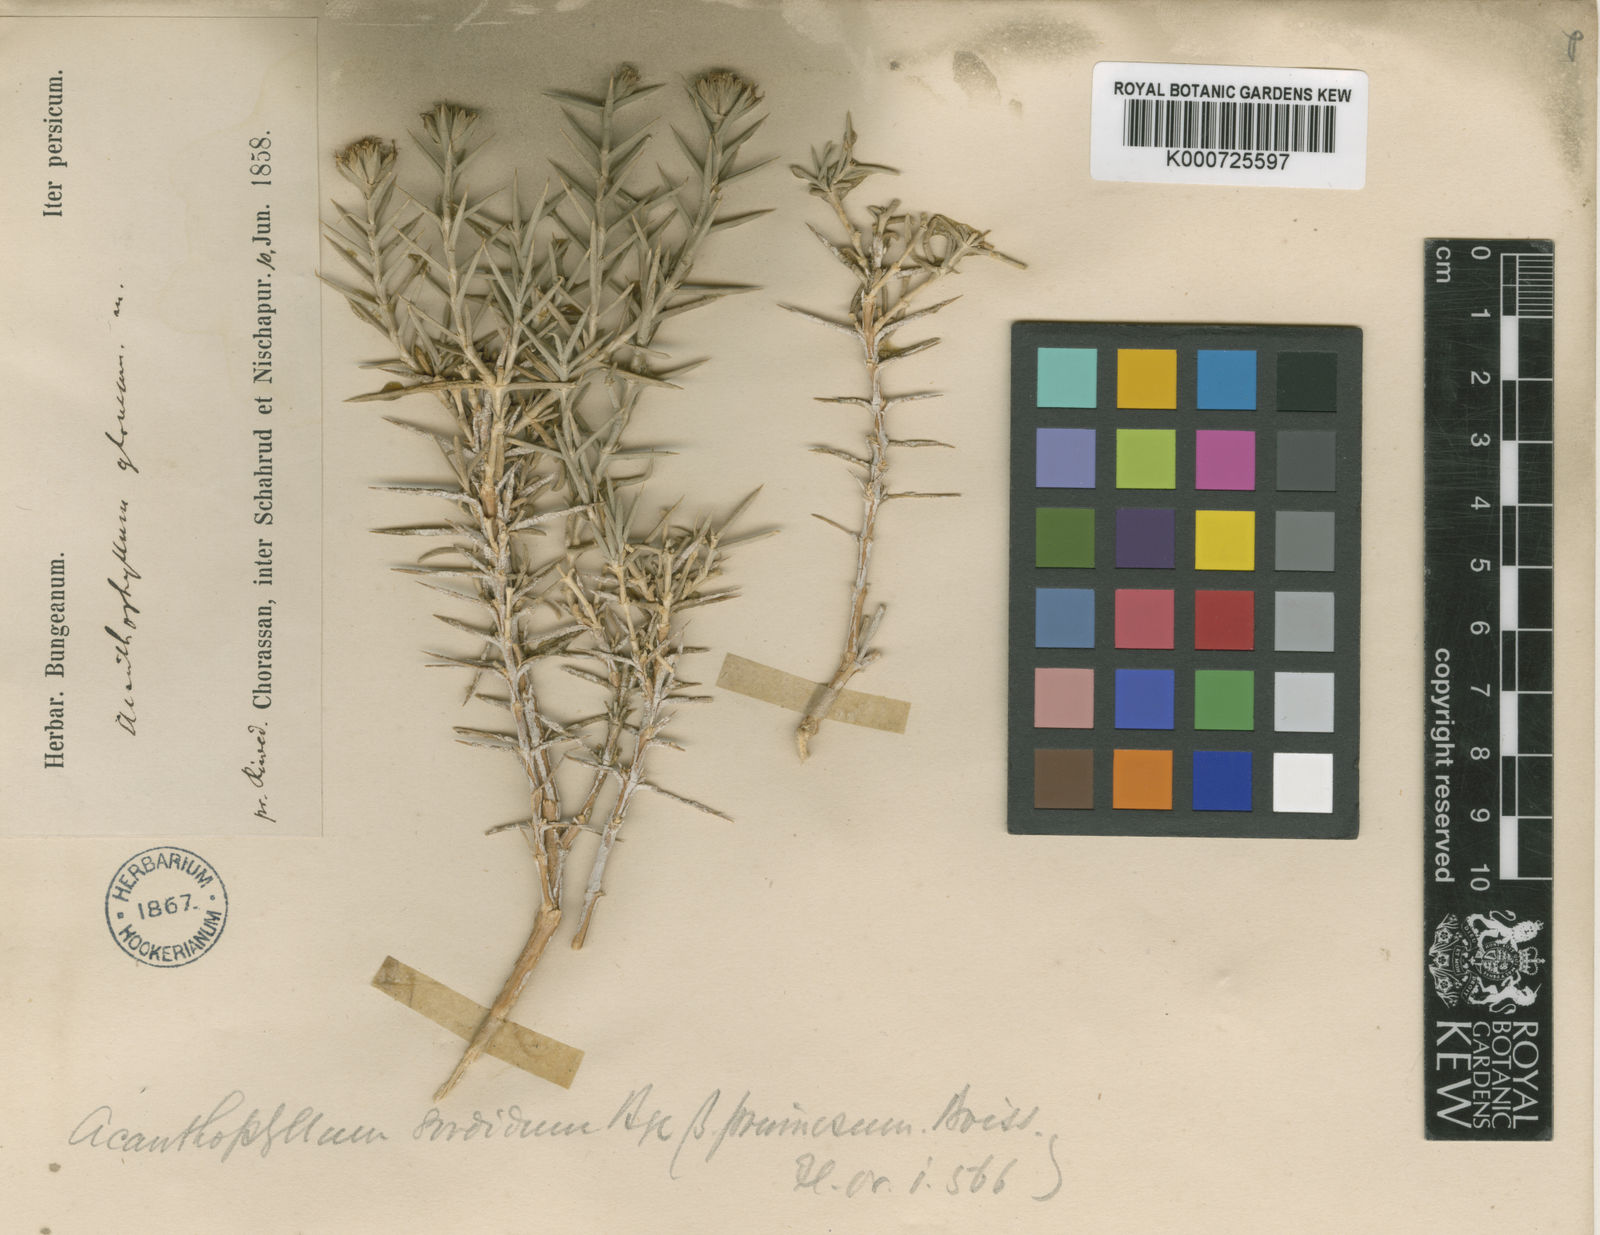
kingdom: Plantae
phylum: Tracheophyta
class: Magnoliopsida
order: Caryophyllales
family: Caryophyllaceae
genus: Acanthophyllum
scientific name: Acanthophyllum sordidum
